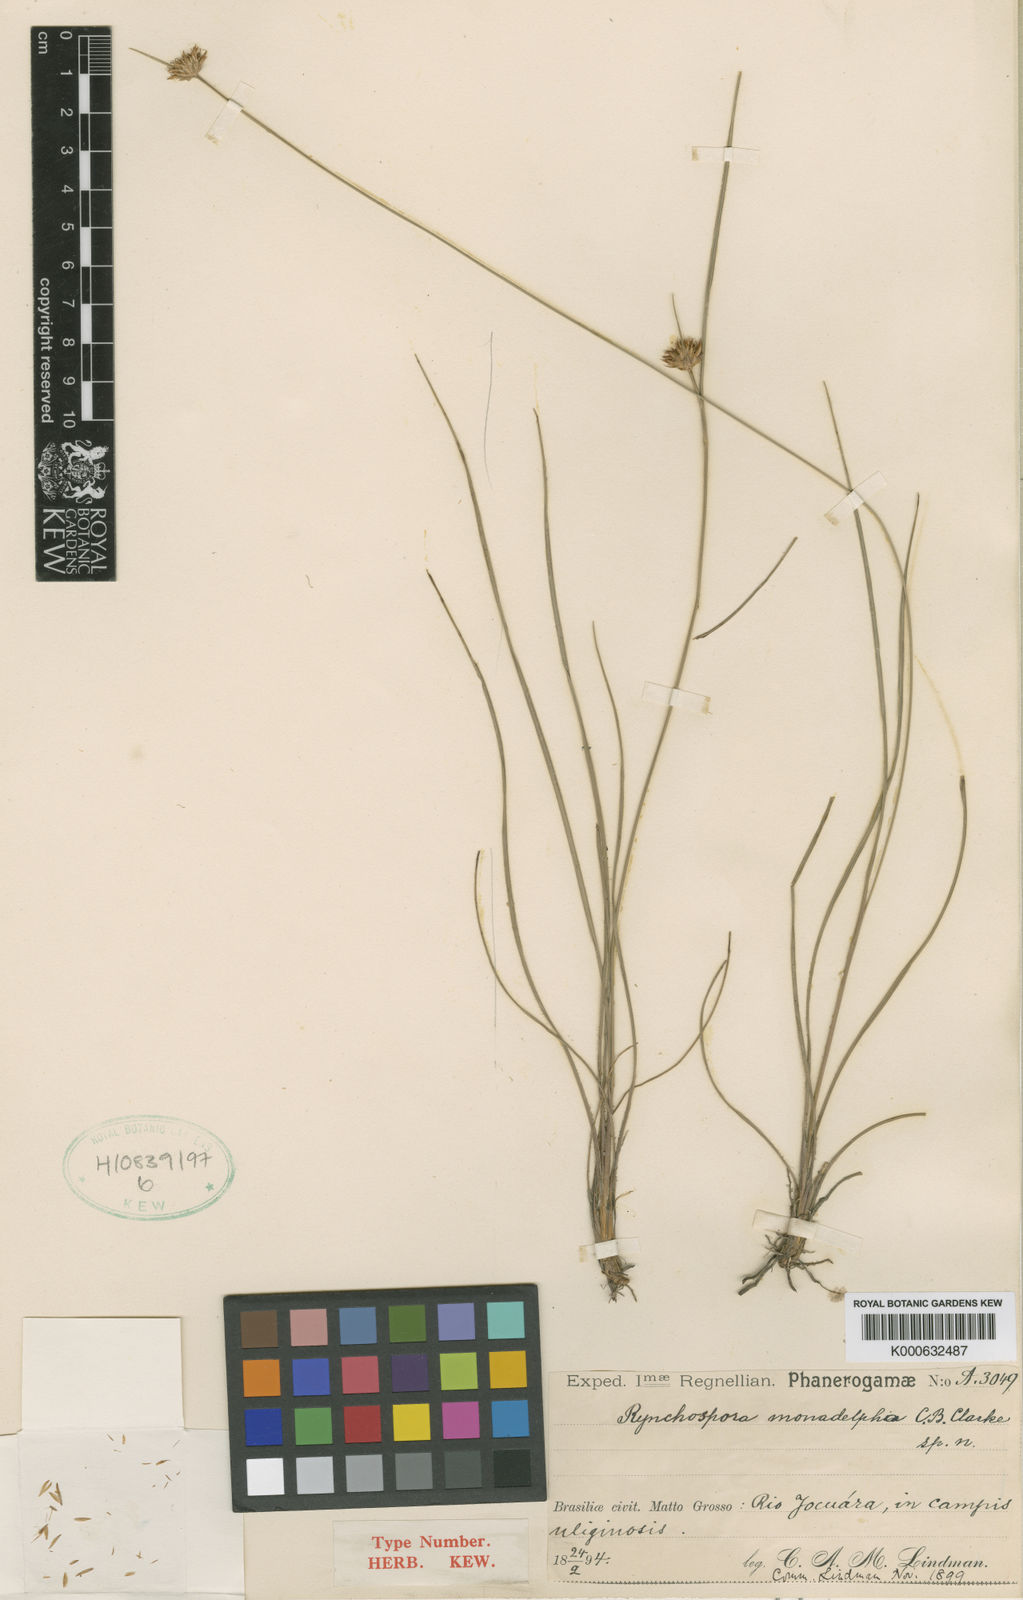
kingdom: Plantae
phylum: Tracheophyta
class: Liliopsida
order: Poales
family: Cyperaceae
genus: Rhynchospora
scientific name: Rhynchospora hirta
